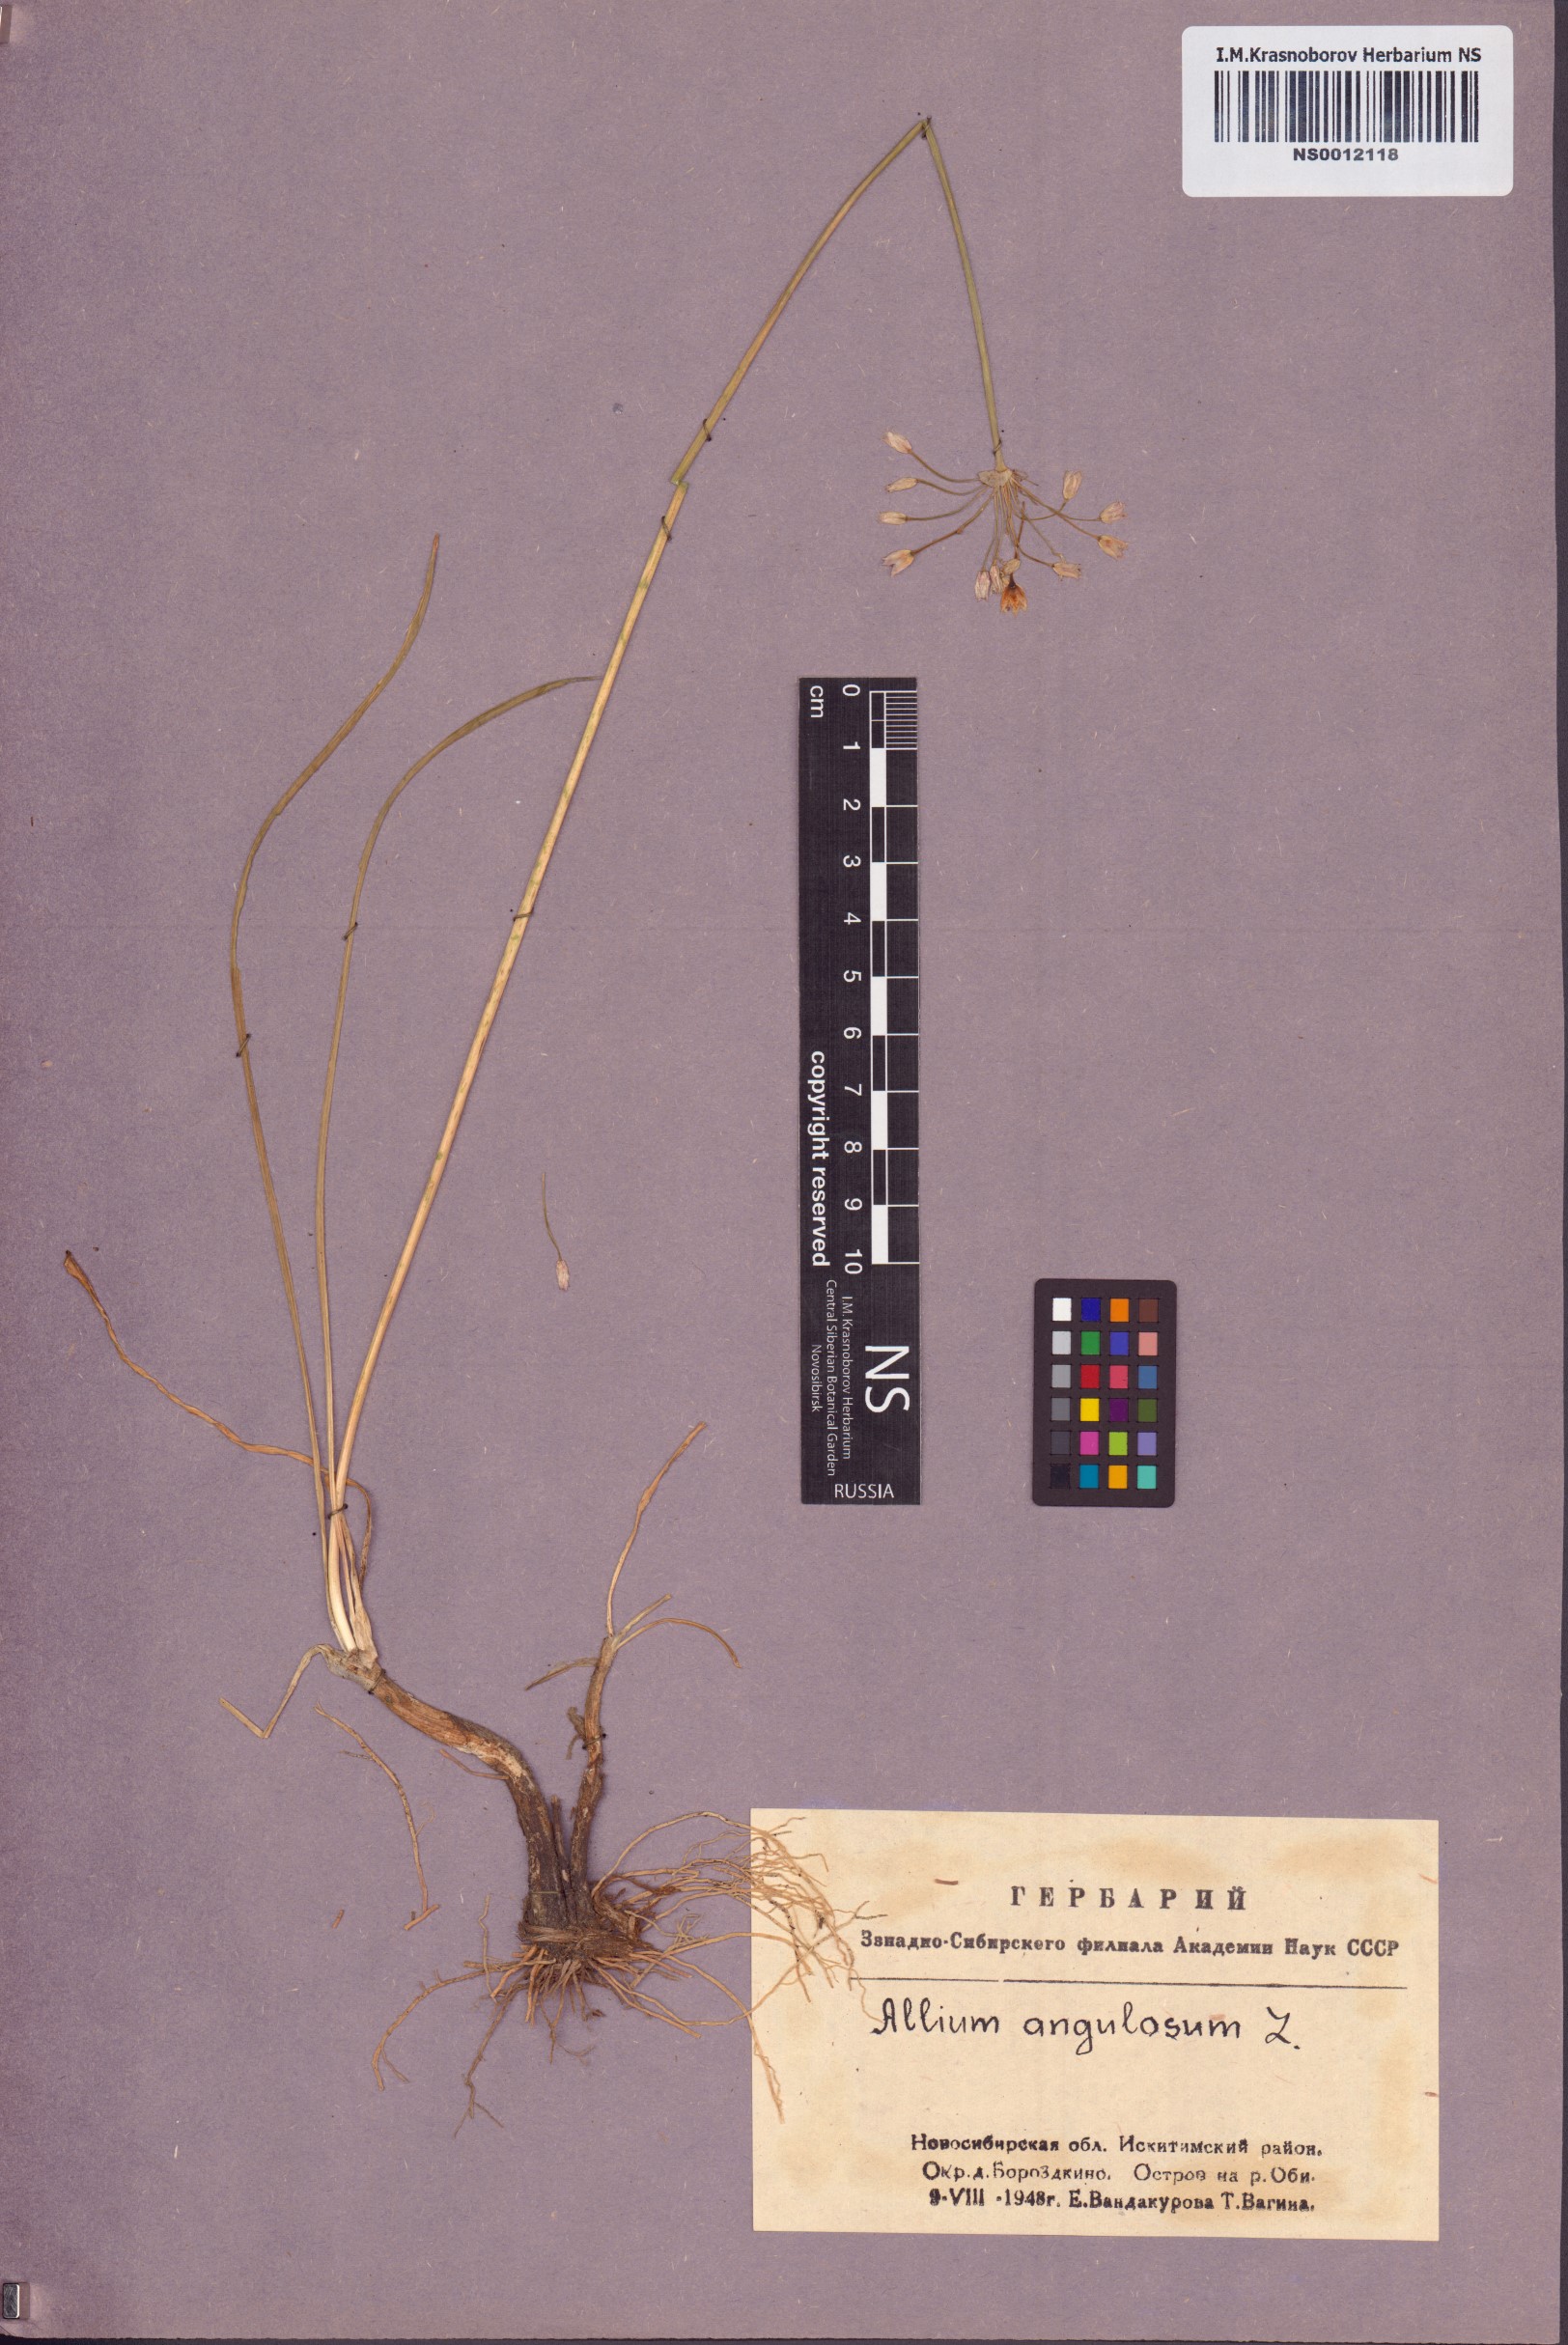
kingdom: Plantae
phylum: Tracheophyta
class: Liliopsida
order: Asparagales
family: Amaryllidaceae
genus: Allium
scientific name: Allium angulosum
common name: Mouse garlic
